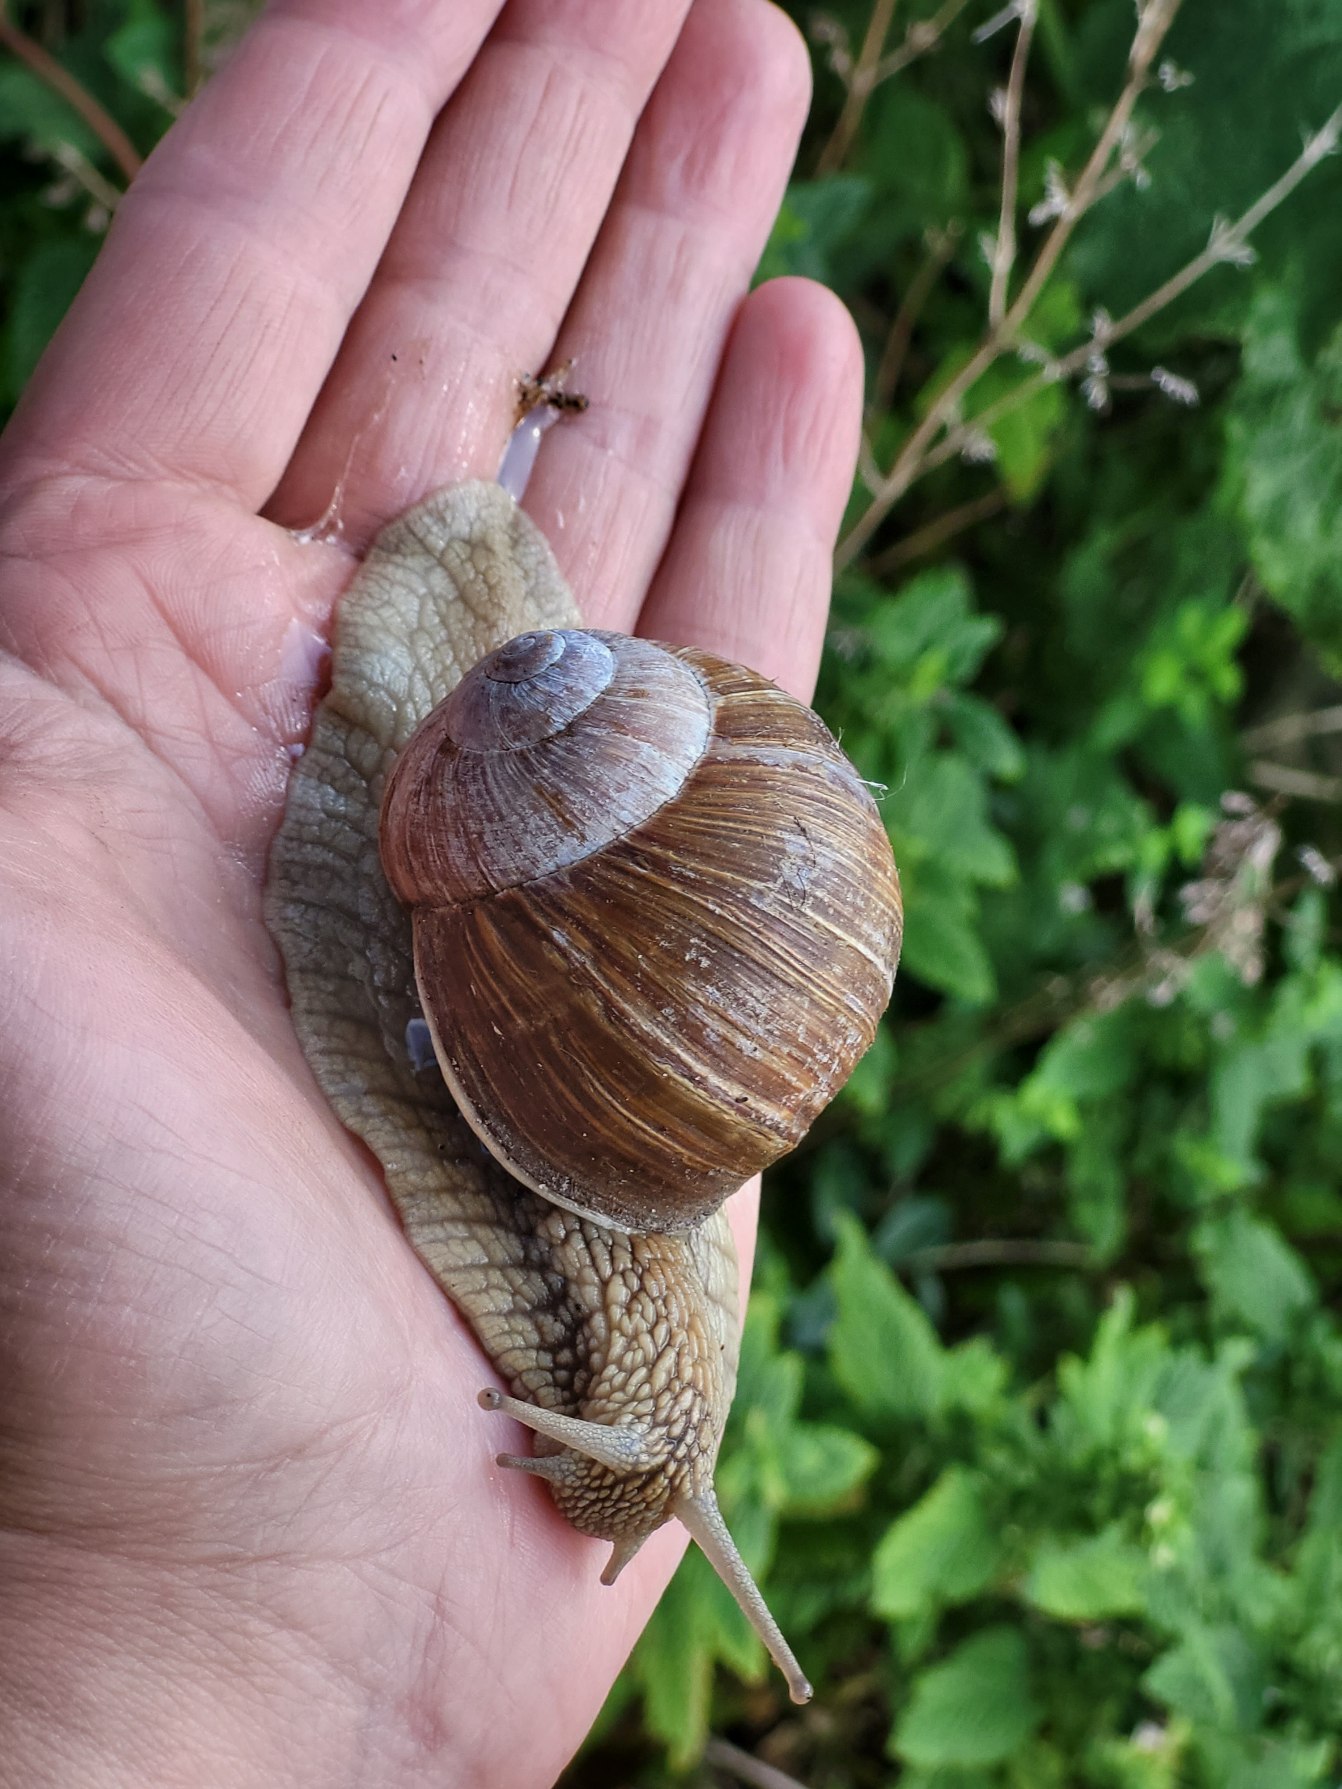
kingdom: Animalia
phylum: Mollusca
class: Gastropoda
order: Stylommatophora
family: Helicidae
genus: Helix
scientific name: Helix pomatia
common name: Vinbjergsnegl
